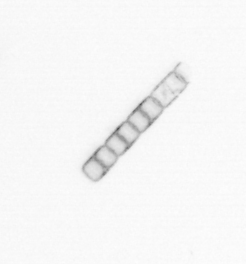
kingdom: Chromista
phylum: Ochrophyta
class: Bacillariophyceae
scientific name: Bacillariophyceae
